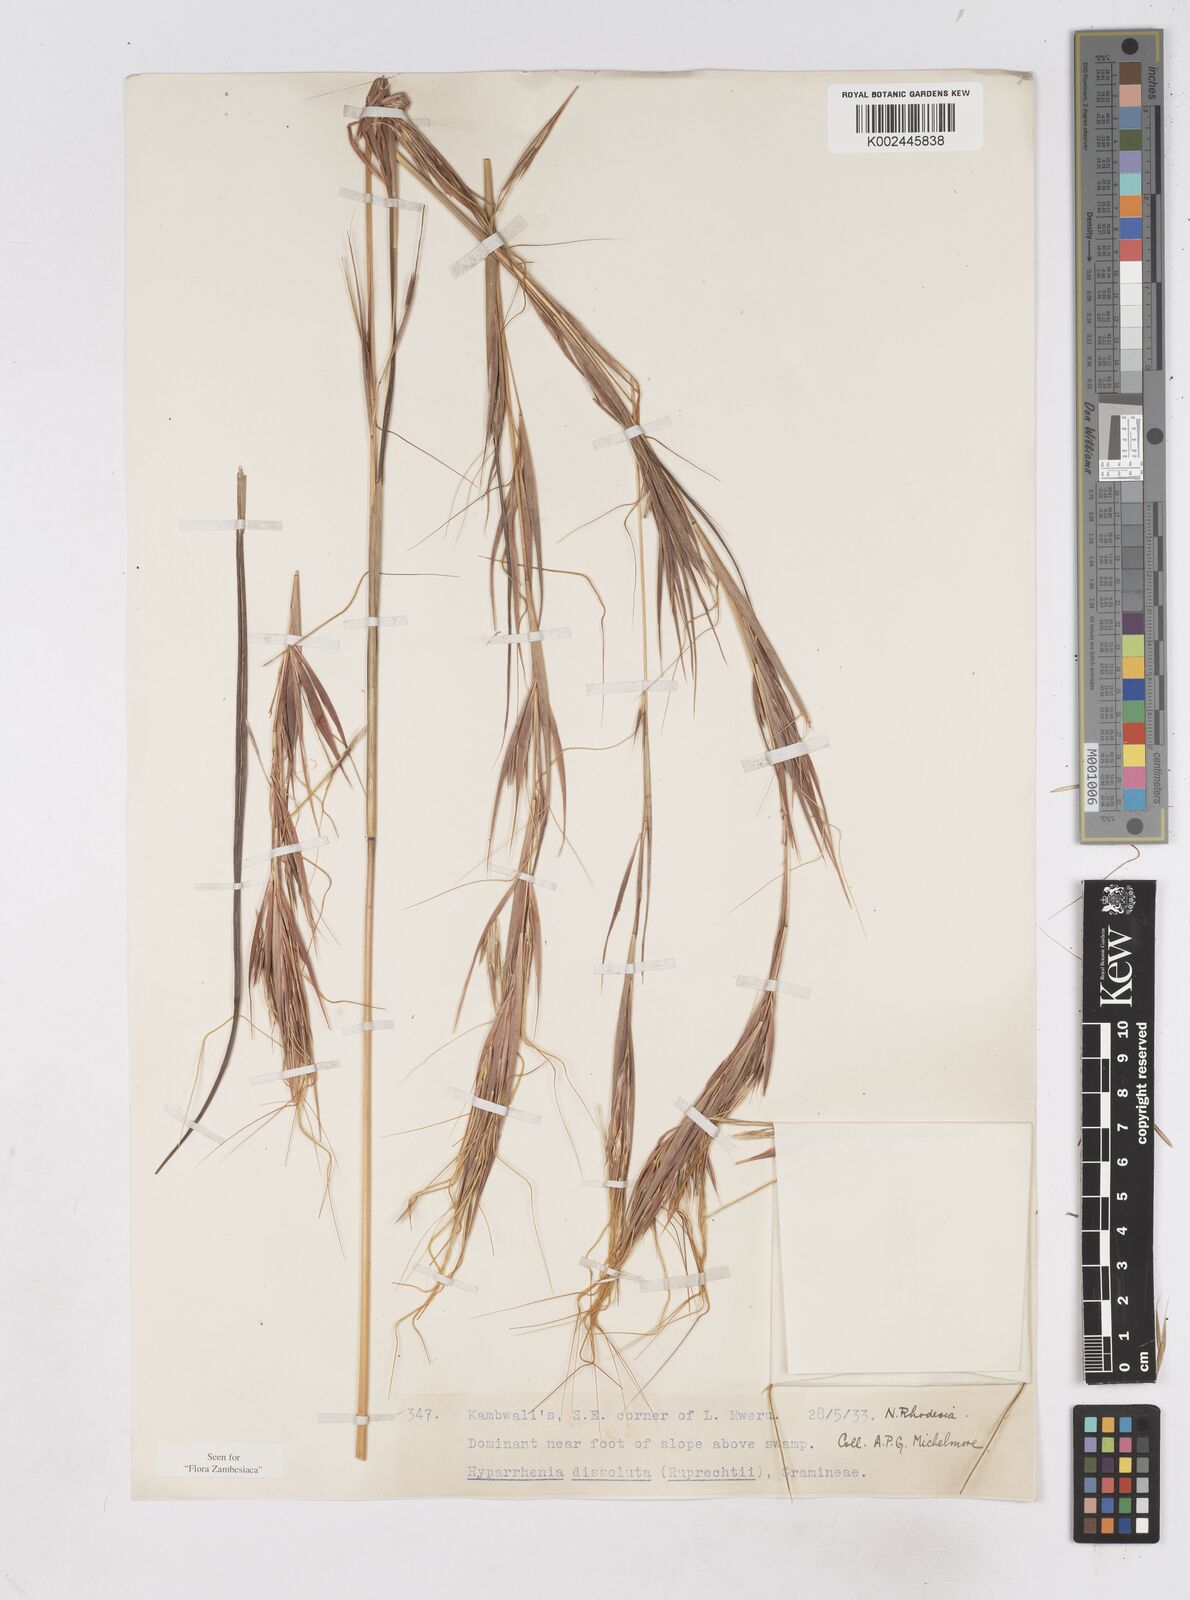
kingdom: Plantae
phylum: Tracheophyta
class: Liliopsida
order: Poales
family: Poaceae
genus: Hyperthelia
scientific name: Hyperthelia dissoluta
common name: Yellow thatching grass
